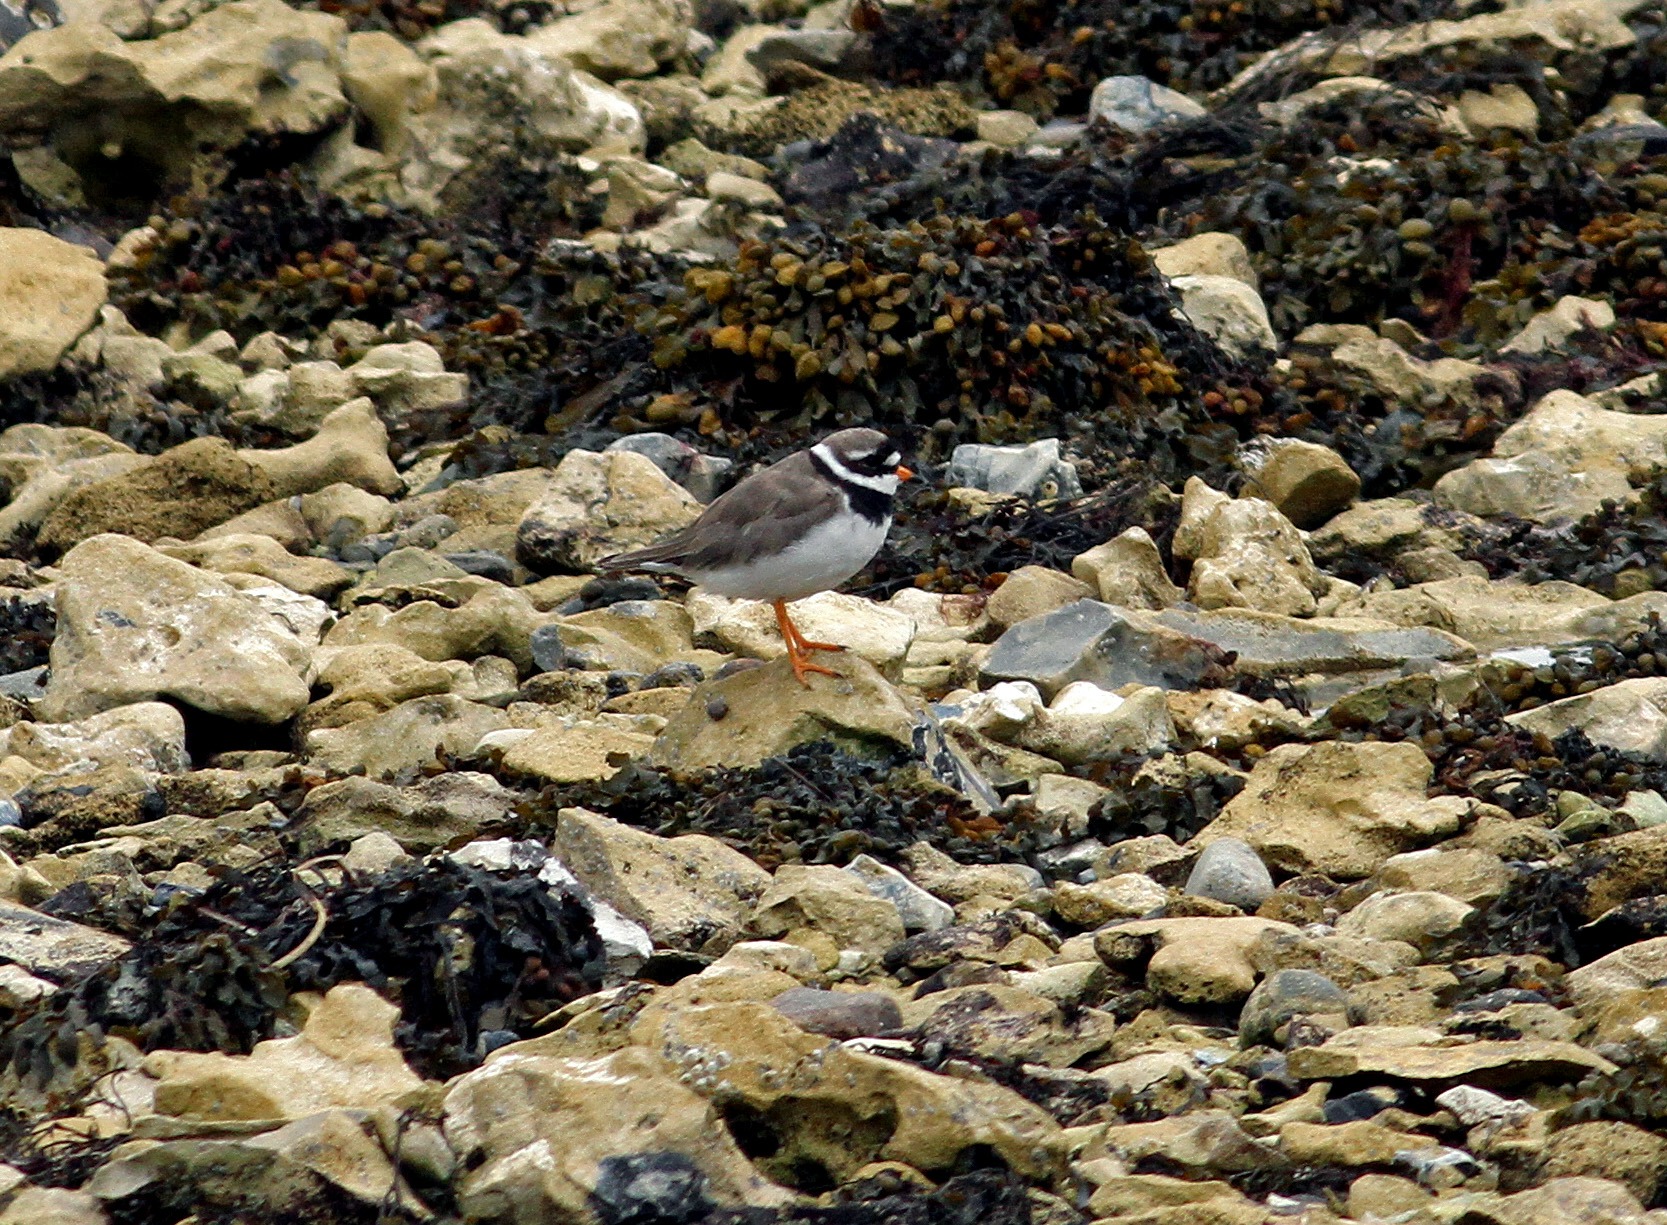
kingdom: Animalia
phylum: Chordata
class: Aves
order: Charadriiformes
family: Charadriidae
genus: Charadrius
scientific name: Charadrius hiaticula
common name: Stor præstekrave
